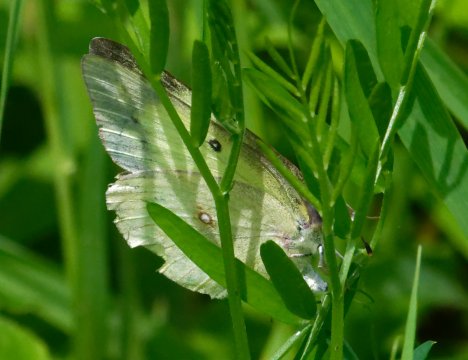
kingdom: Animalia
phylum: Arthropoda
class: Insecta
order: Lepidoptera
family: Pieridae
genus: Colias
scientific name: Colias philodice
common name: Clouded Sulphur
